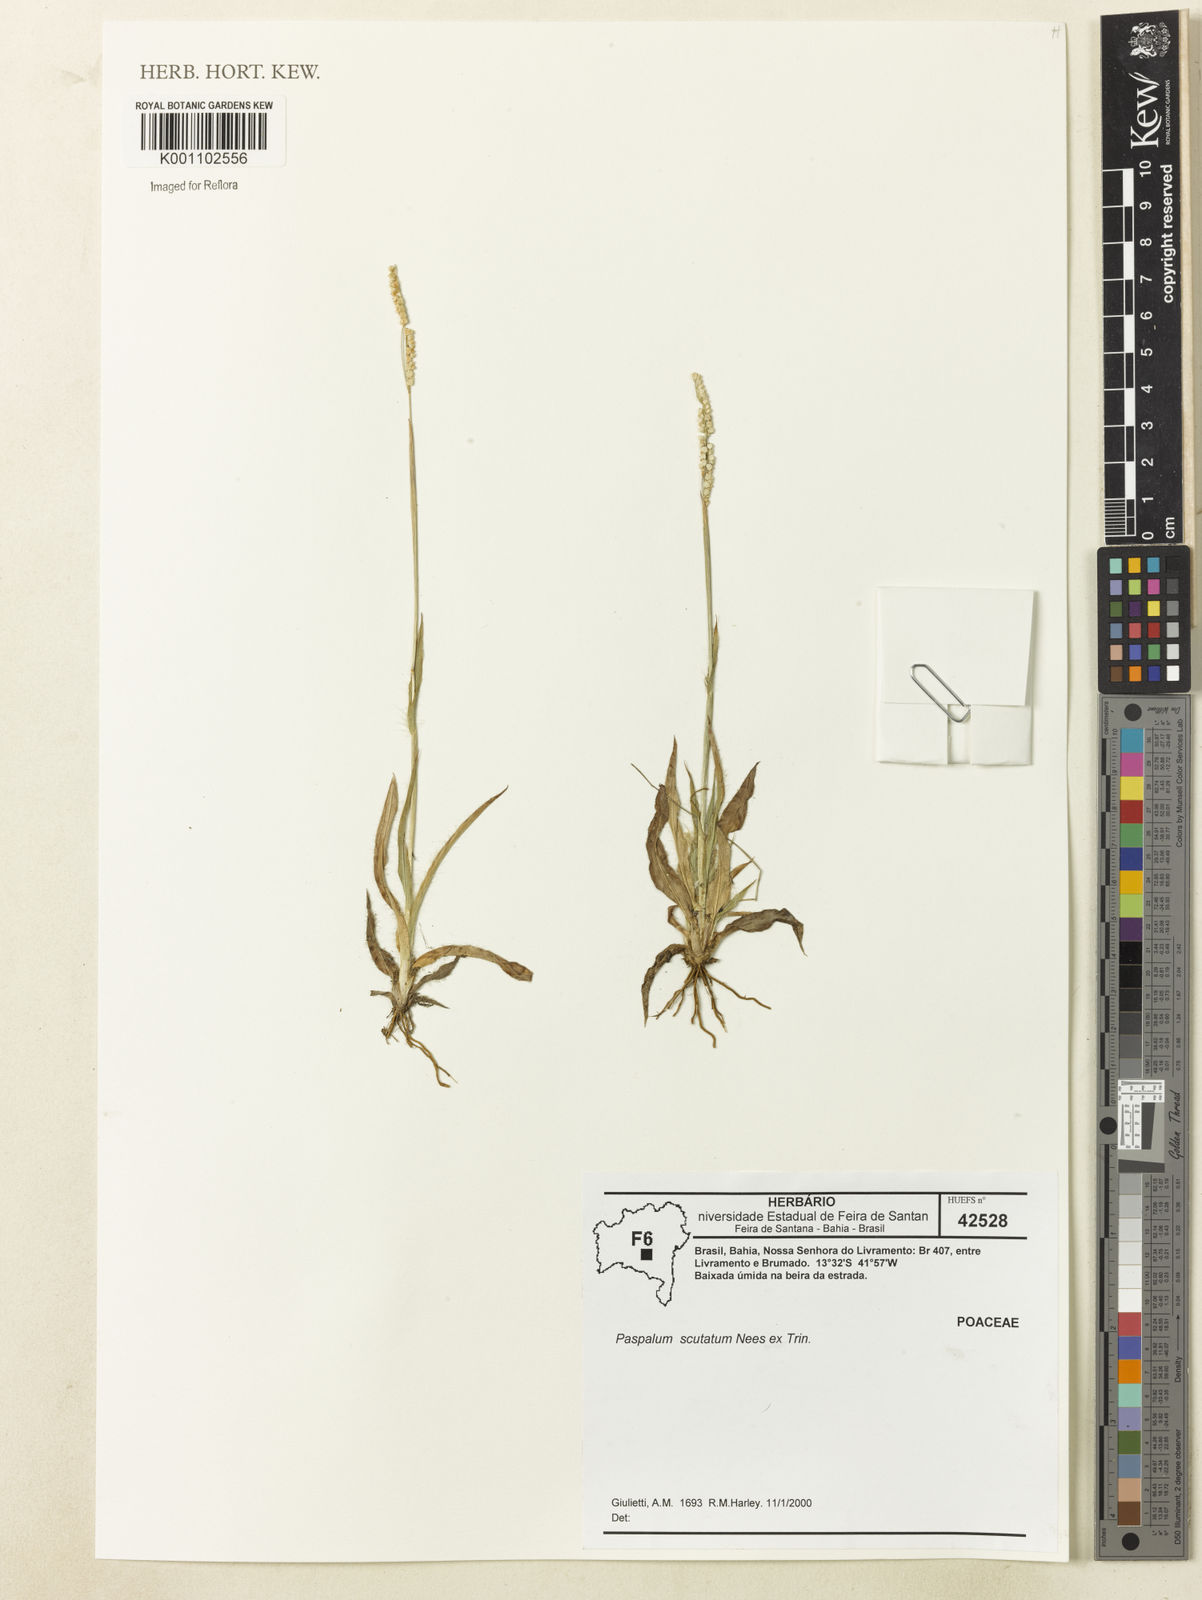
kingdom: Plantae
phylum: Tracheophyta
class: Liliopsida
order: Poales
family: Poaceae
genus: Paspalum
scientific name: Paspalum scutatum
